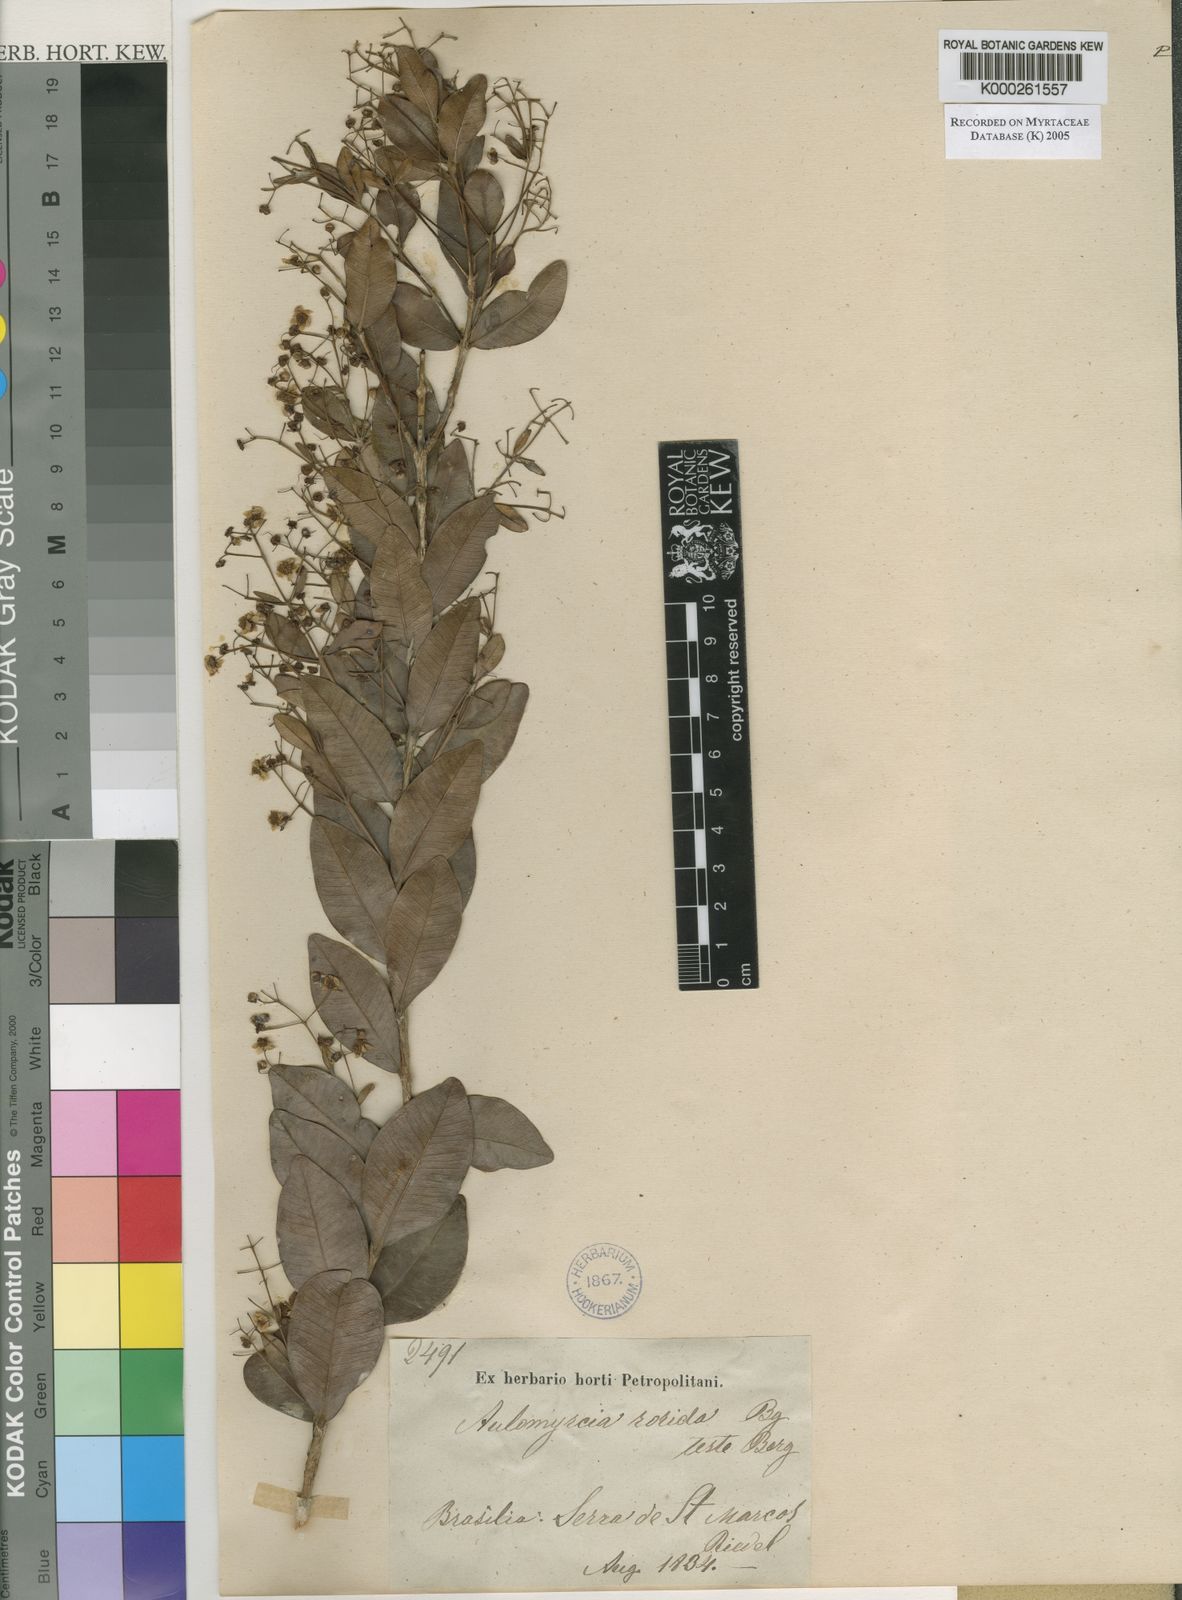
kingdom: Plantae
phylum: Tracheophyta
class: Magnoliopsida
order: Myrtales
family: Myrtaceae
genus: Myrcia
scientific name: Myrcia guianensis
